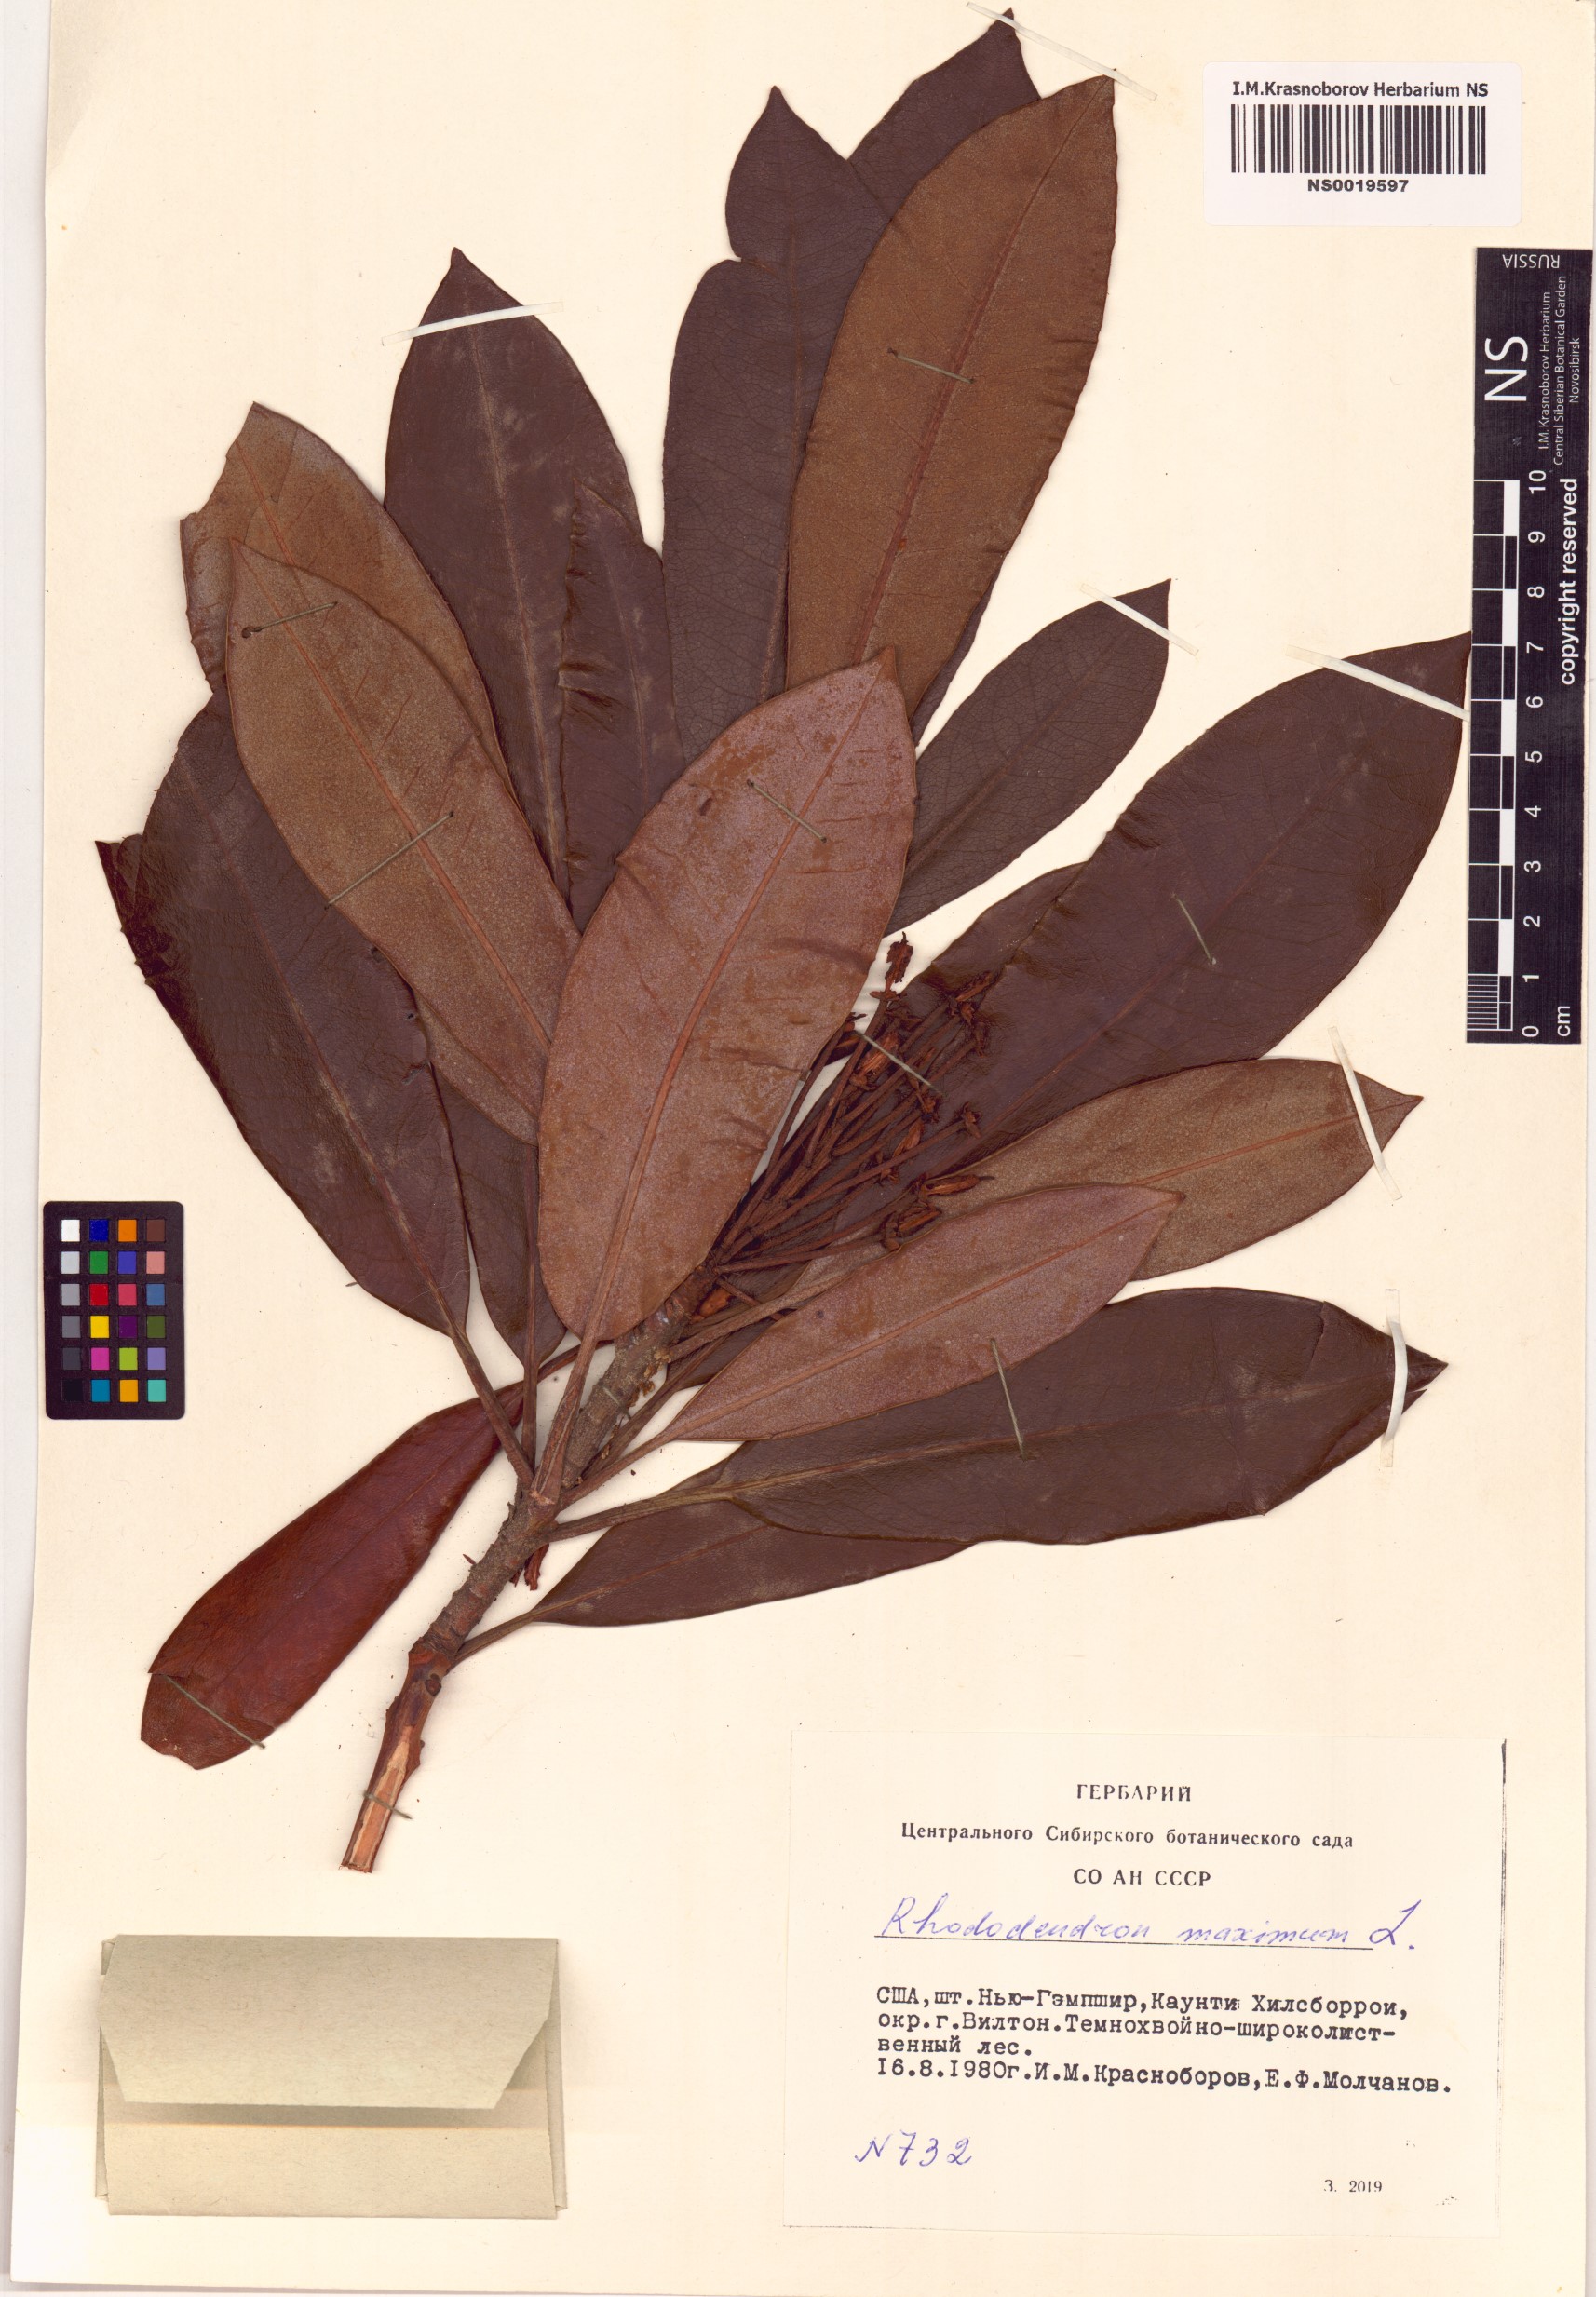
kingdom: Plantae
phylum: Tracheophyta
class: Magnoliopsida
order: Ericales
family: Ericaceae
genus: Rhododendron
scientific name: Rhododendron maximum
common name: Great rhododendron
